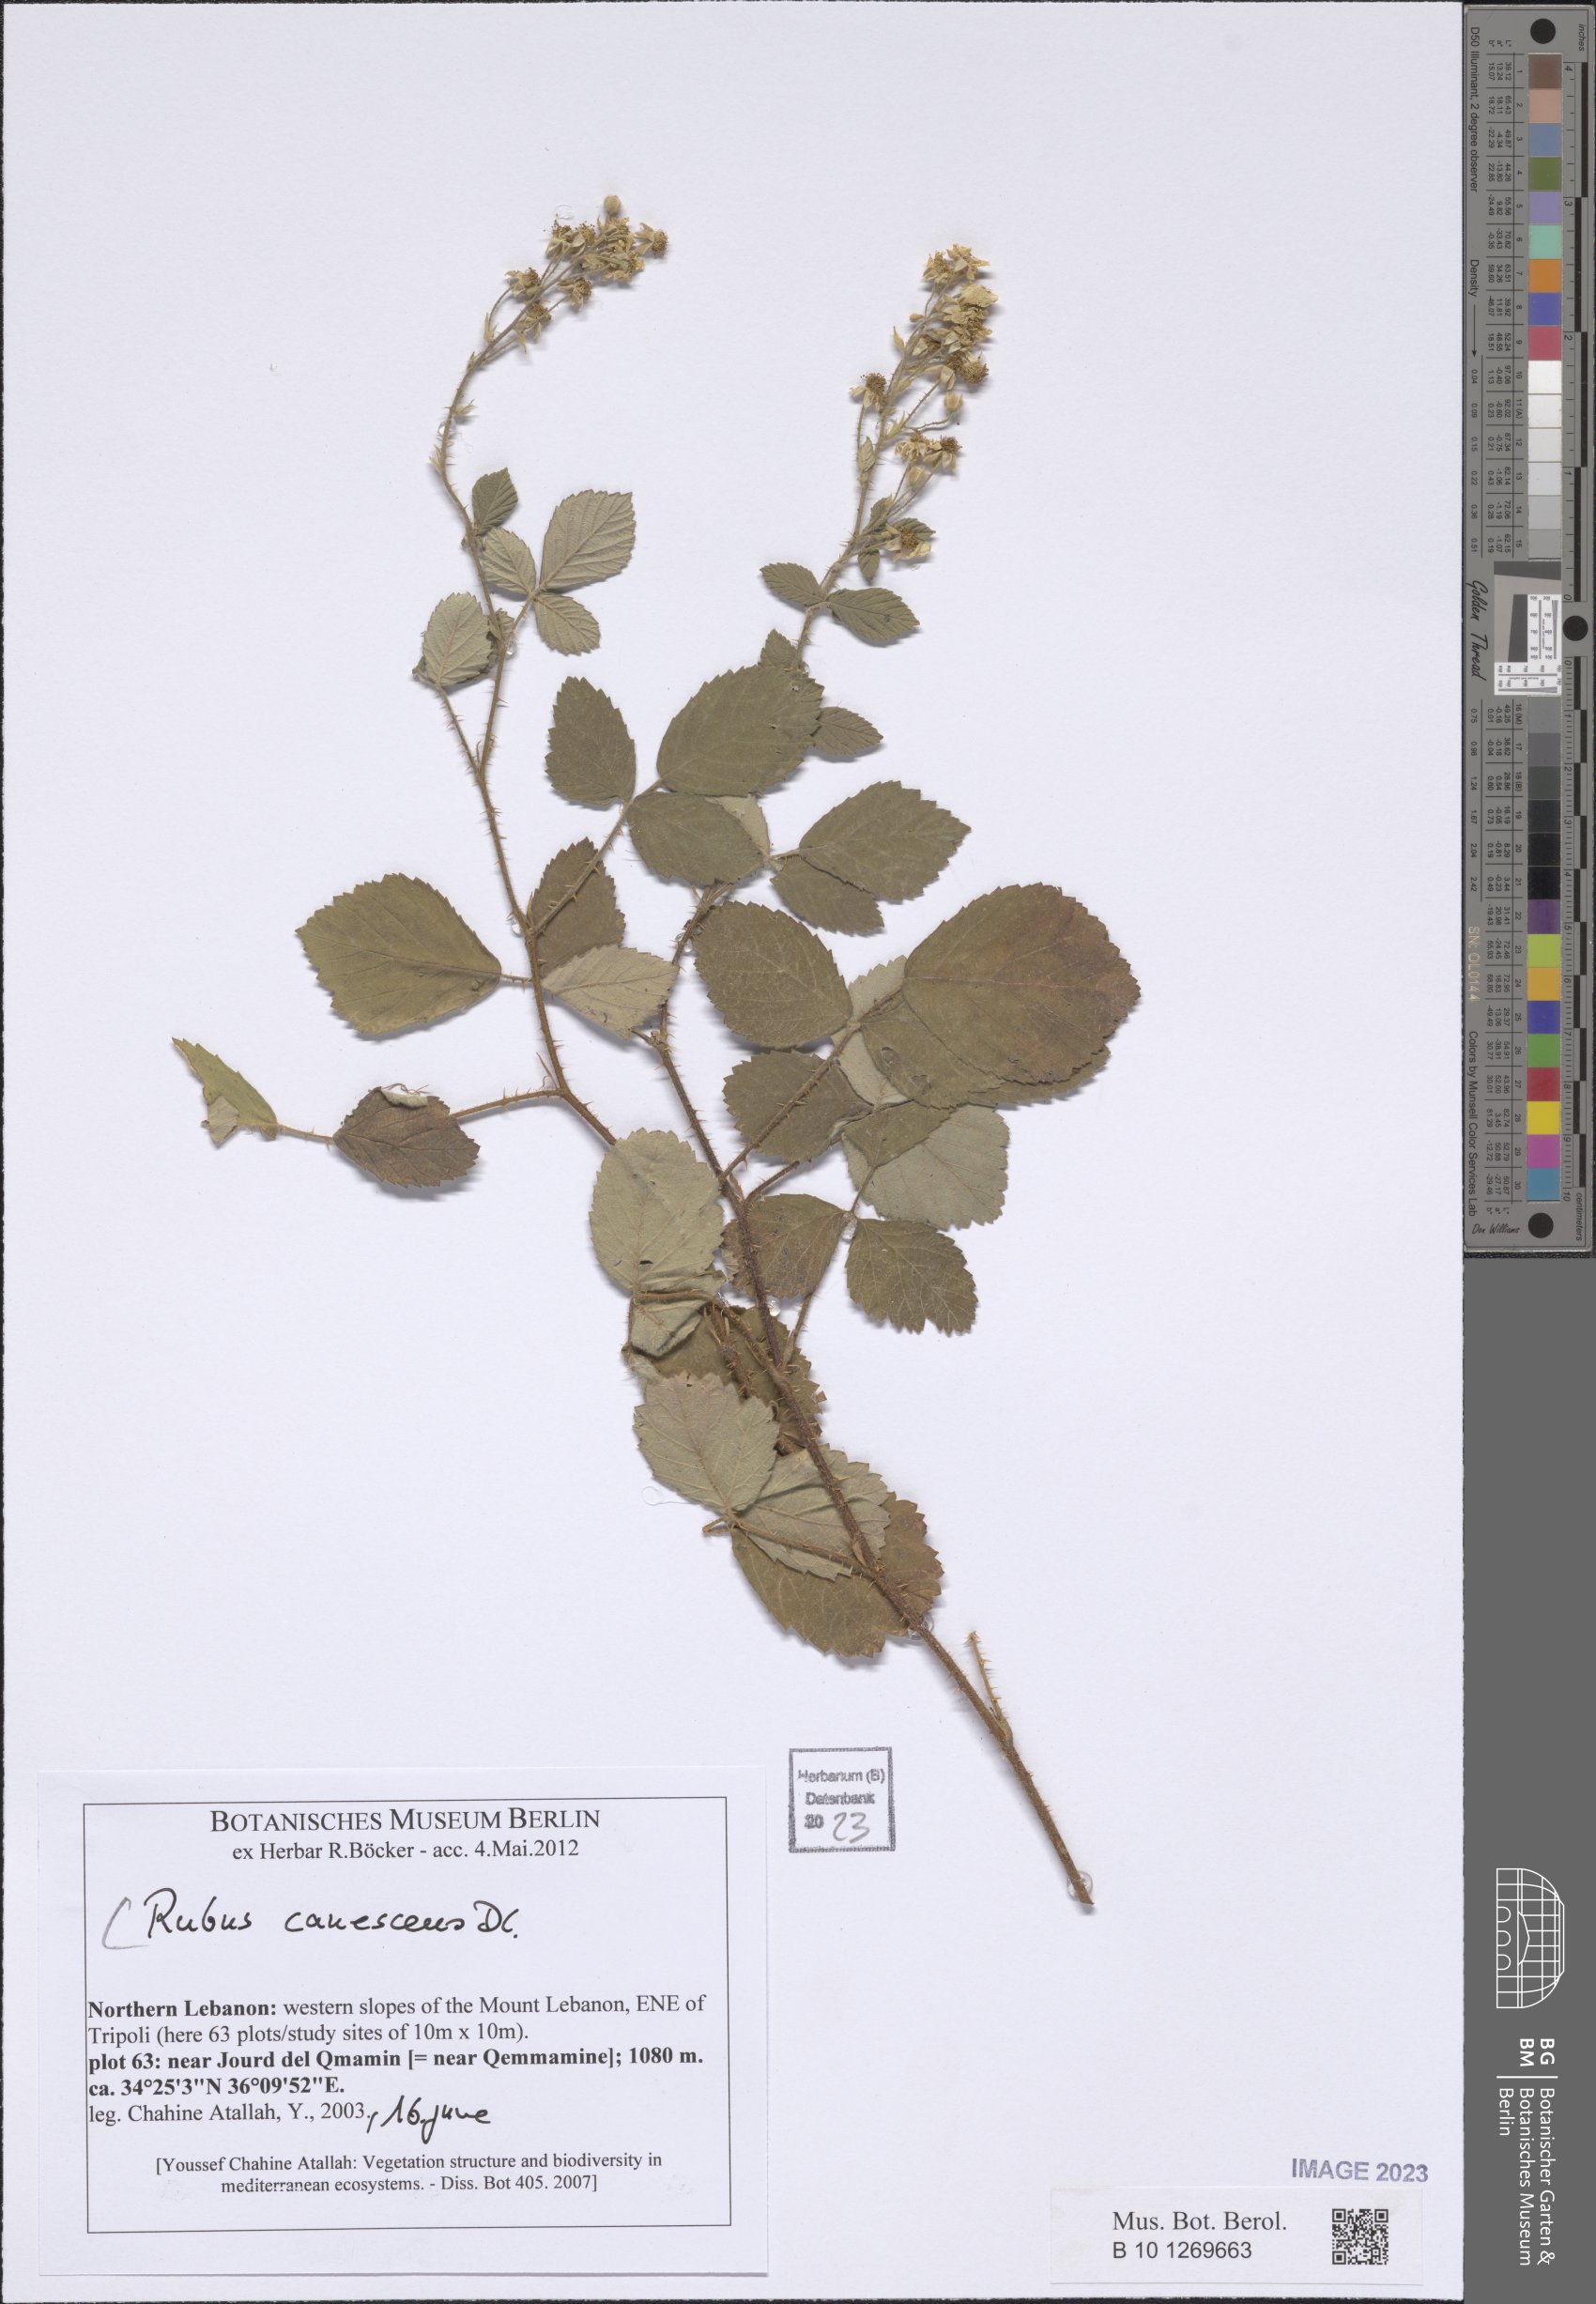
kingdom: Plantae
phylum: Tracheophyta
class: Magnoliopsida
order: Rosales
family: Rosaceae
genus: Rubus
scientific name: Rubus canescens
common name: Wooly blackberry
